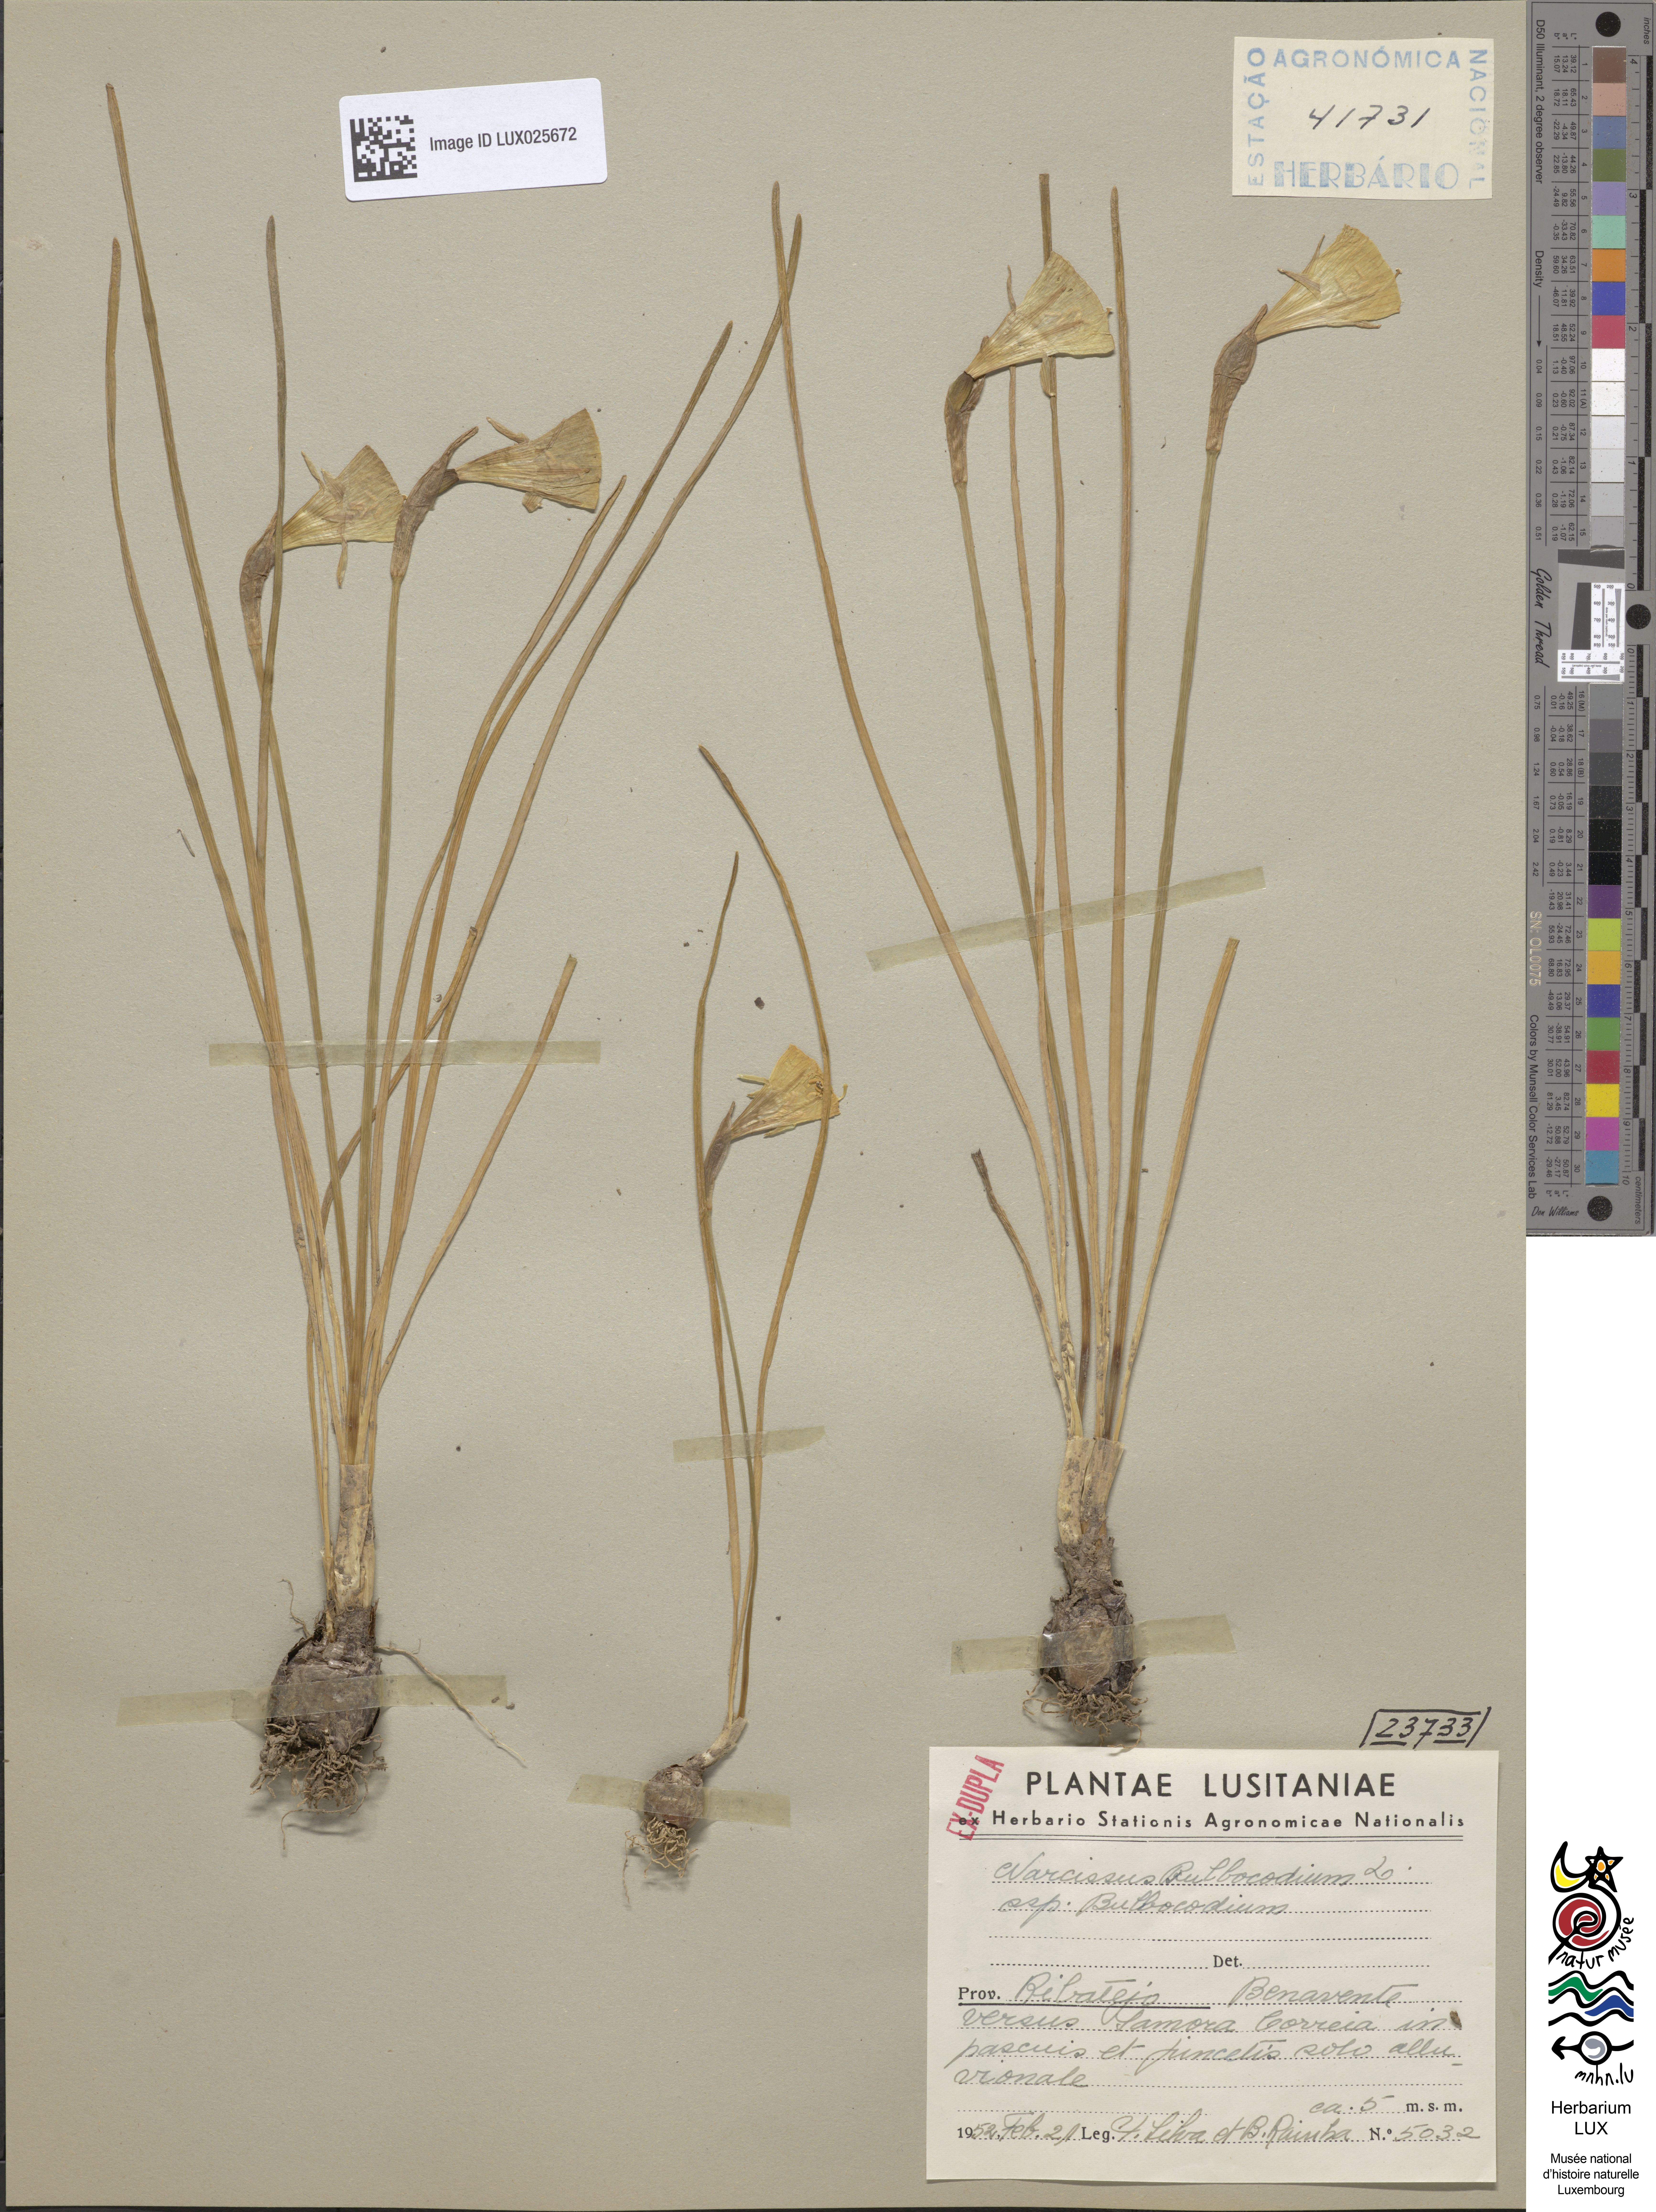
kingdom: Plantae
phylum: Tracheophyta
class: Liliopsida
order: Asparagales
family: Amaryllidaceae
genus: Narcissus
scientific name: Narcissus bulbocodium
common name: Hoop-petticoat daffodil
